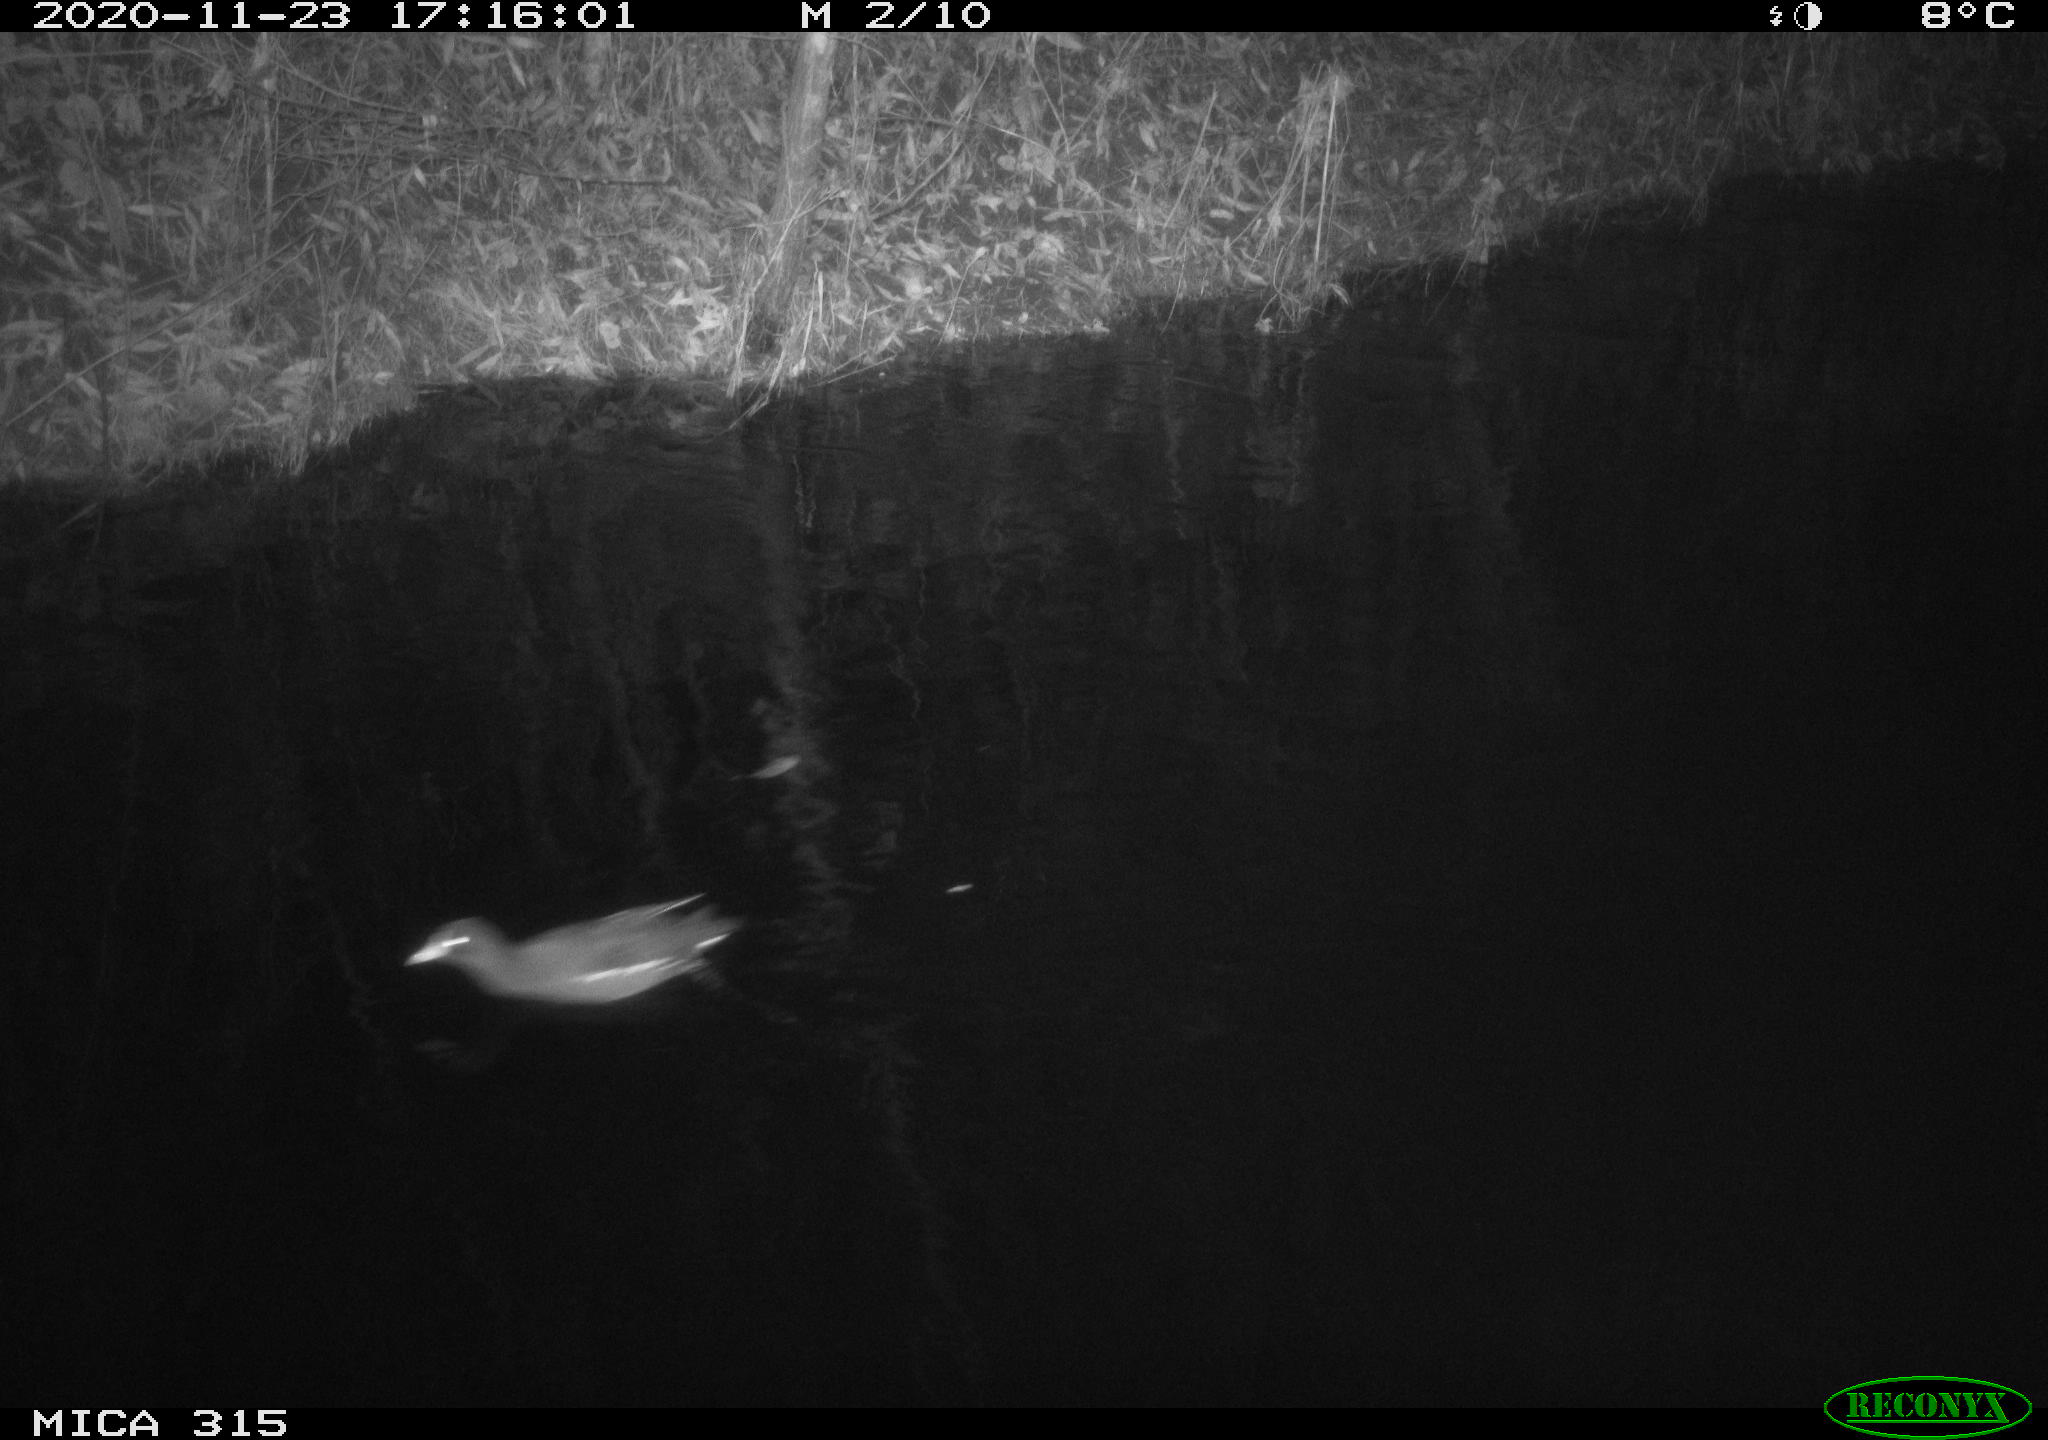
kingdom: Animalia
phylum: Chordata
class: Aves
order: Gruiformes
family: Rallidae
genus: Gallinula
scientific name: Gallinula chloropus
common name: Common moorhen
